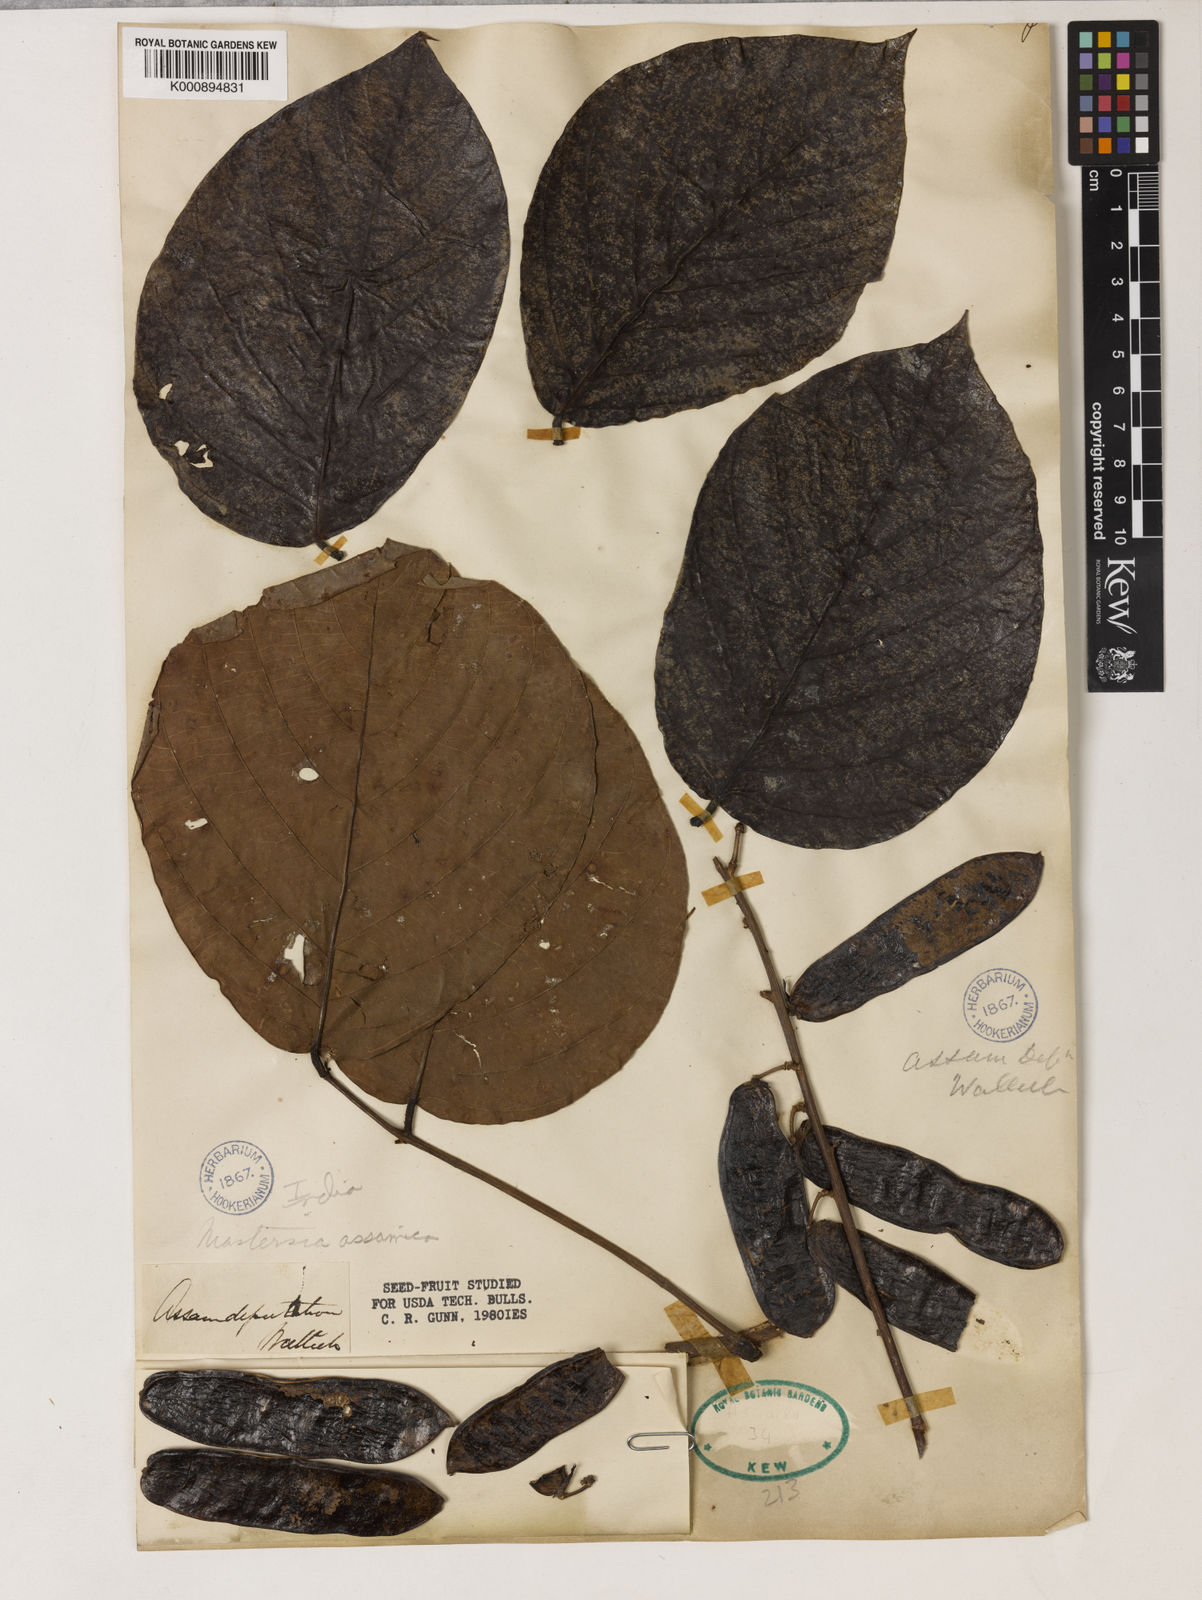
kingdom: Plantae
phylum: Tracheophyta
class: Magnoliopsida
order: Fabales
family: Fabaceae
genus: Mastersia
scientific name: Mastersia assamica
